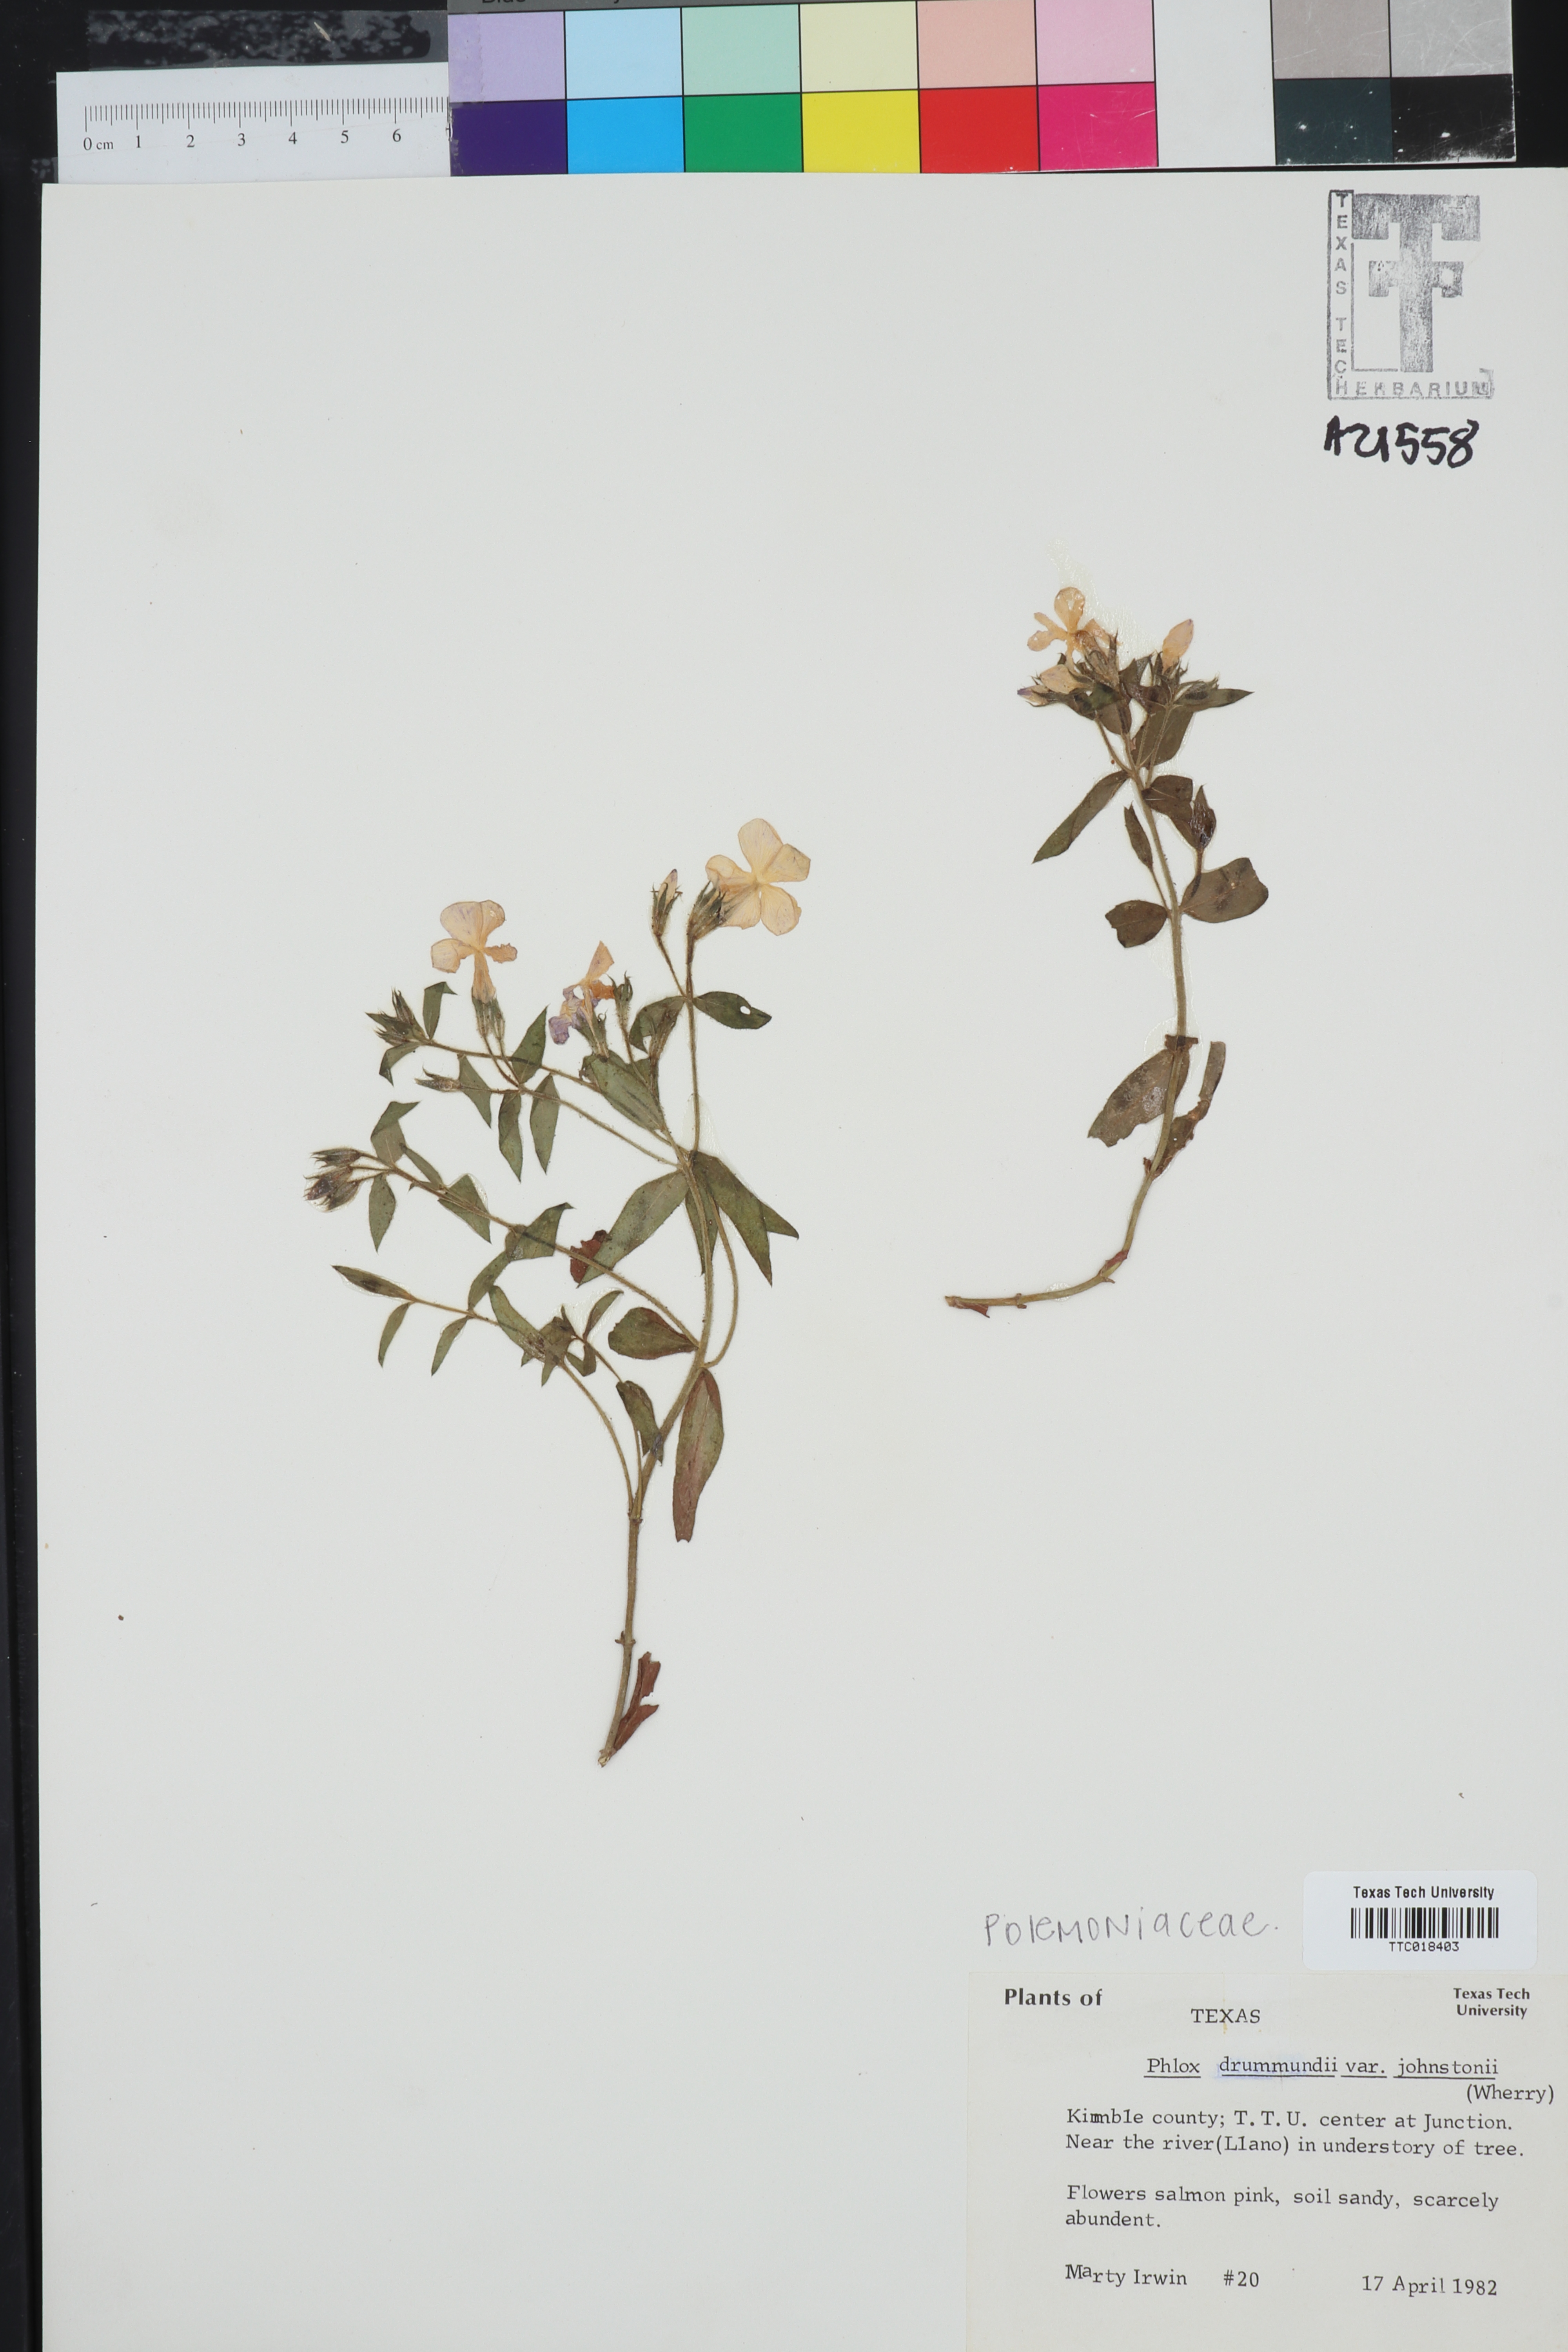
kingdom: Plantae
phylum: Tracheophyta
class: Magnoliopsida
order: Ericales
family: Polemoniaceae
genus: Phlox
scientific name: Phlox drummondii
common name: Drummond's phlox
